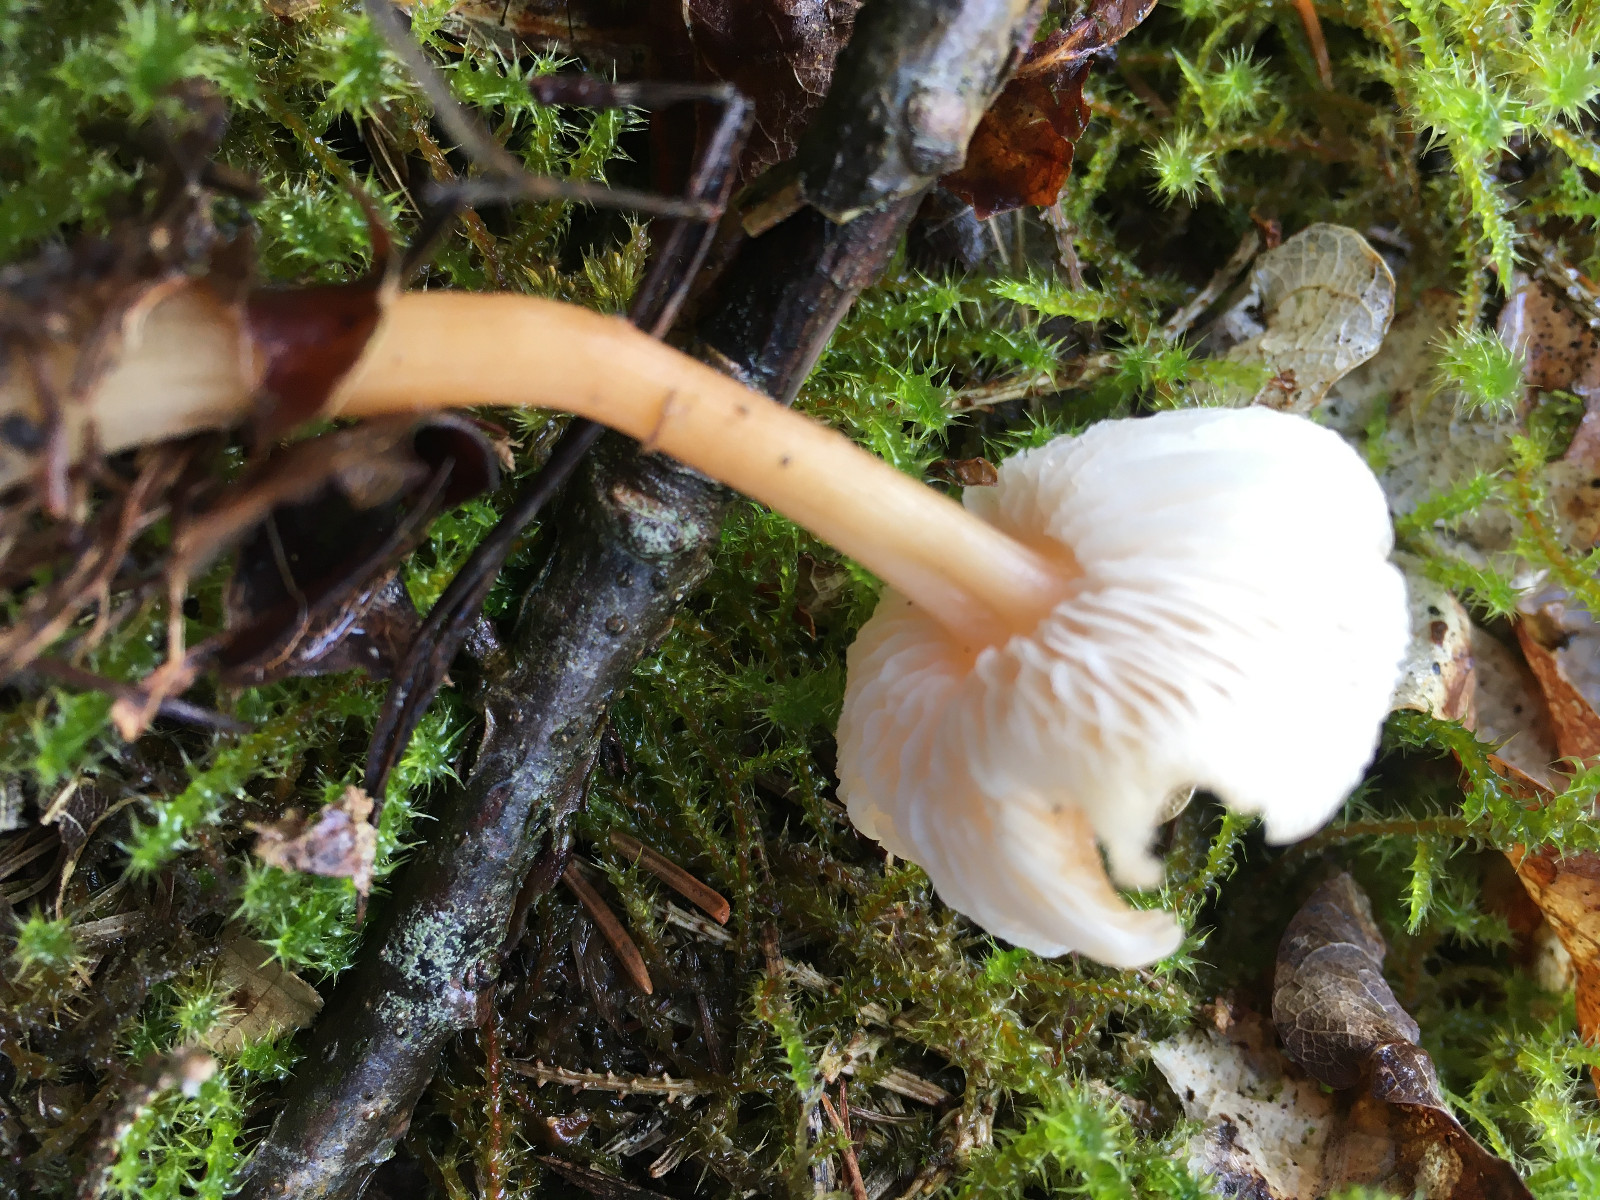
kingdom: Fungi
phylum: Basidiomycota
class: Agaricomycetes
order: Agaricales
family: Omphalotaceae
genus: Gymnopus
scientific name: Gymnopus aquosus
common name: bleg fladhat
